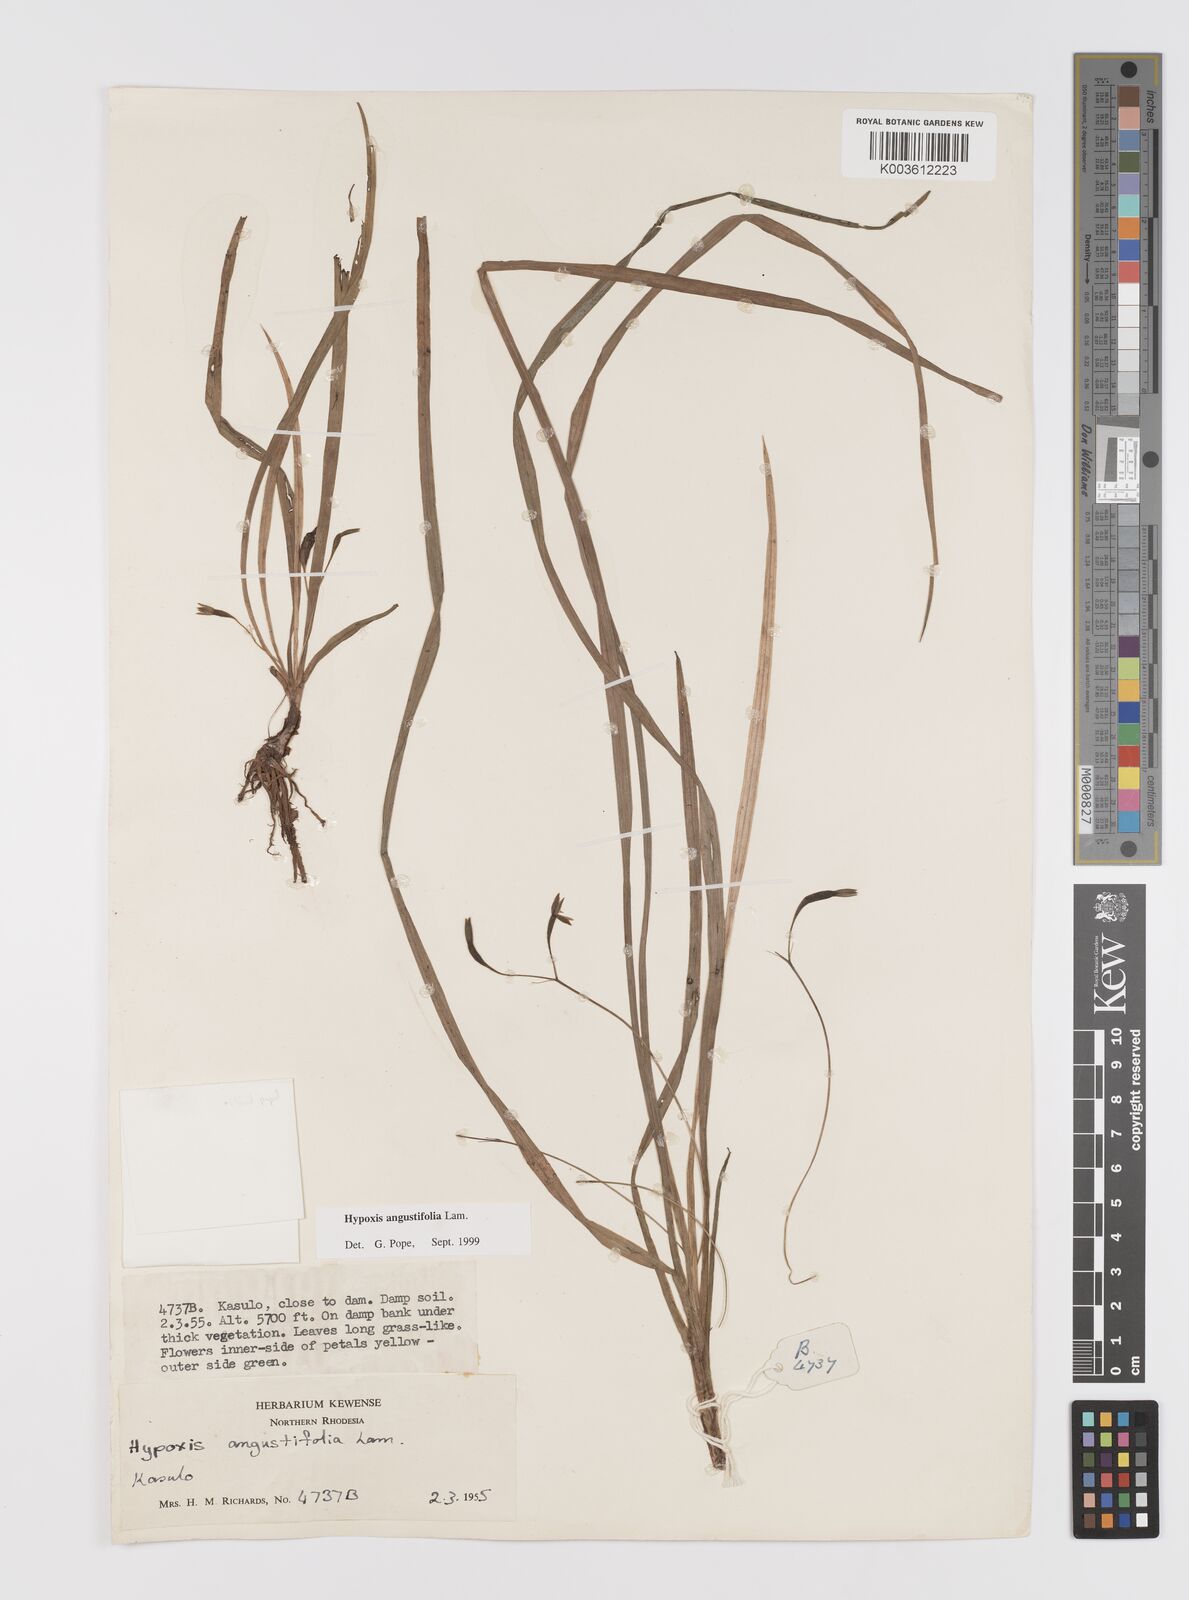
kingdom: Plantae
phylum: Tracheophyta
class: Liliopsida
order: Asparagales
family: Hypoxidaceae
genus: Hypoxis
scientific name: Hypoxis angustifolia
